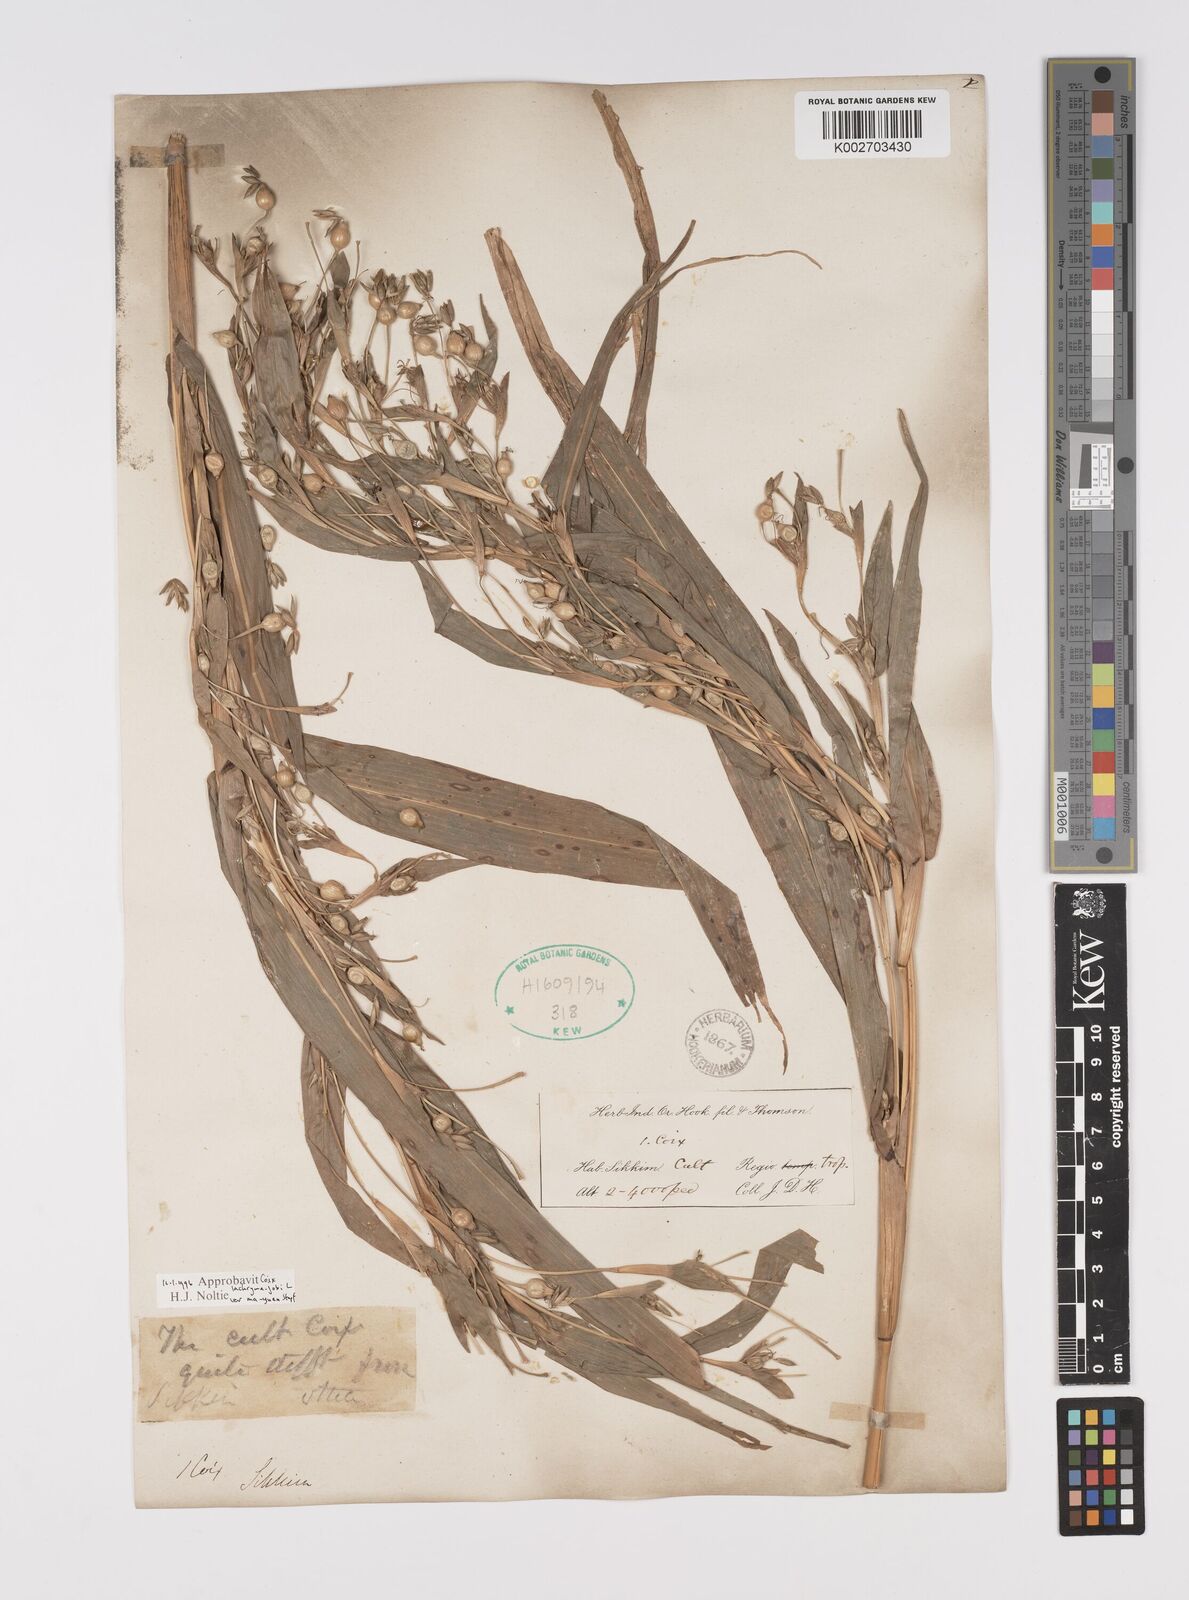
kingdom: Plantae
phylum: Tracheophyta
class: Liliopsida
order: Poales
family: Poaceae
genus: Coix
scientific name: Coix lacryma-jobi
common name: Job's tears
